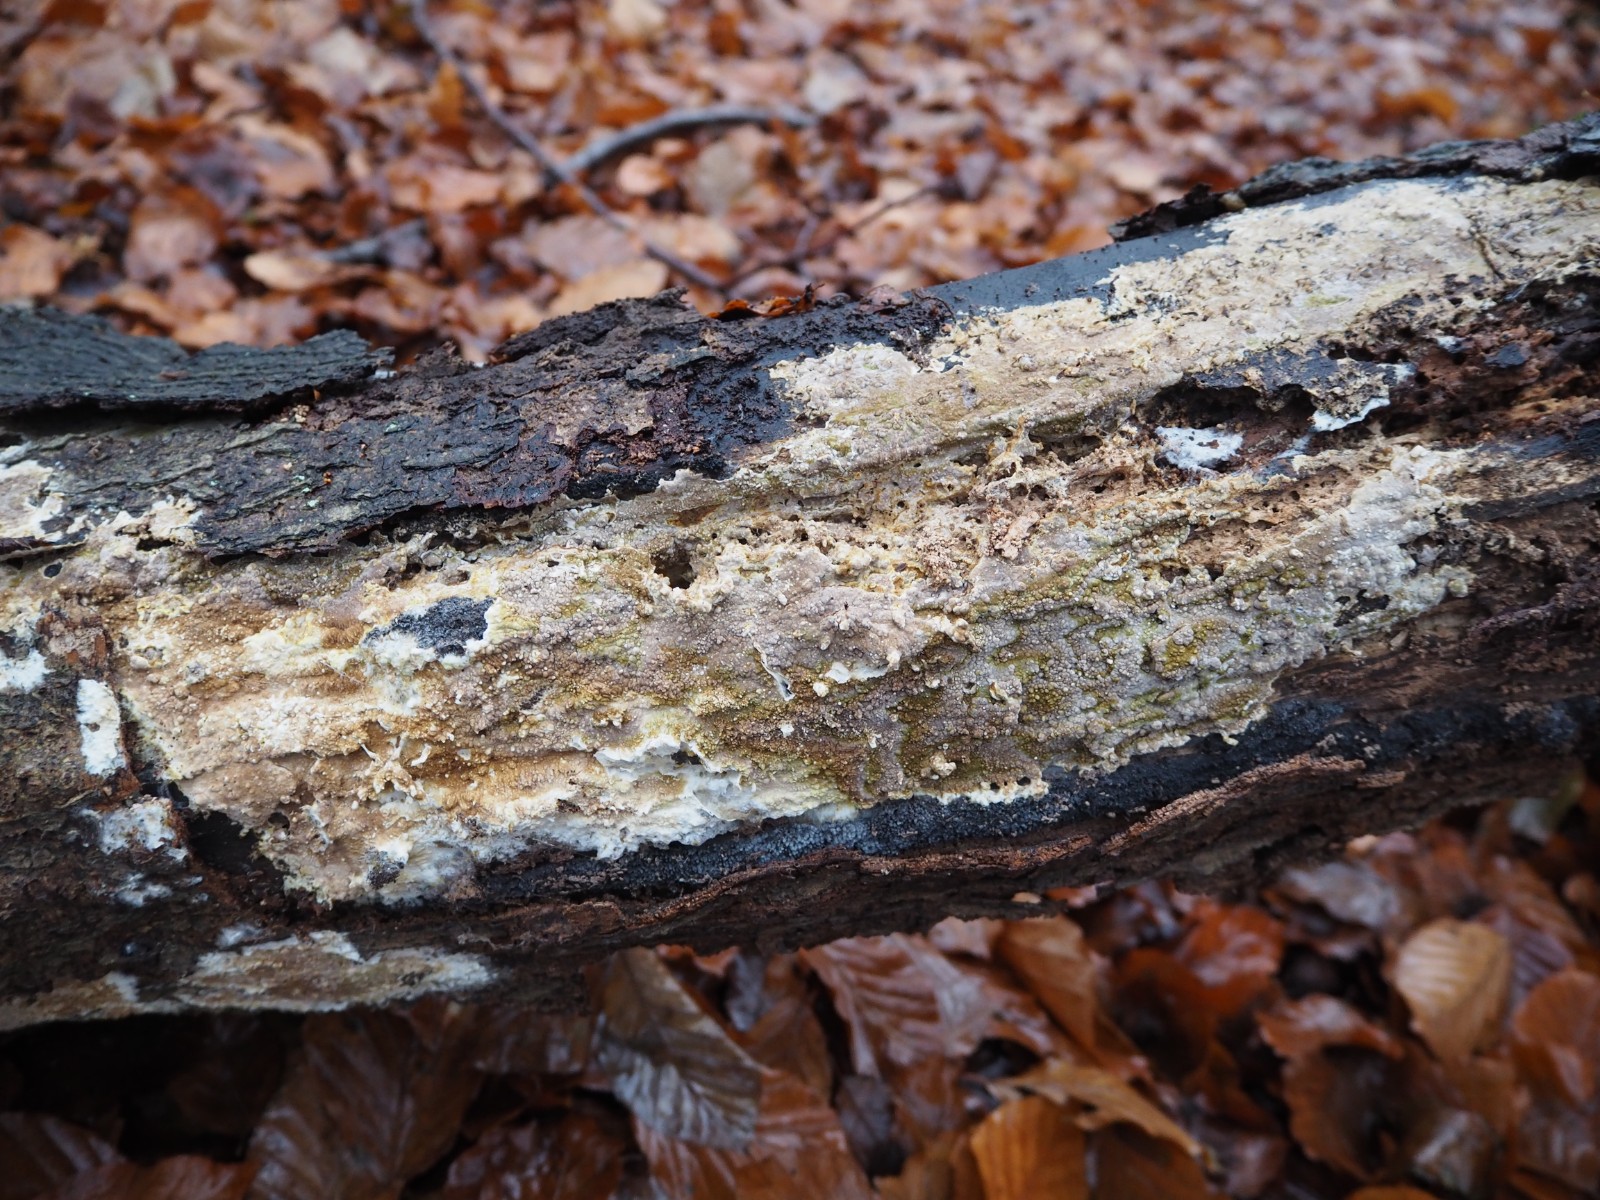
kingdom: Fungi
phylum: Basidiomycota
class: Agaricomycetes
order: Boletales
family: Coniophoraceae
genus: Coniophora
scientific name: Coniophora puteana
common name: gul tømmersvamp
